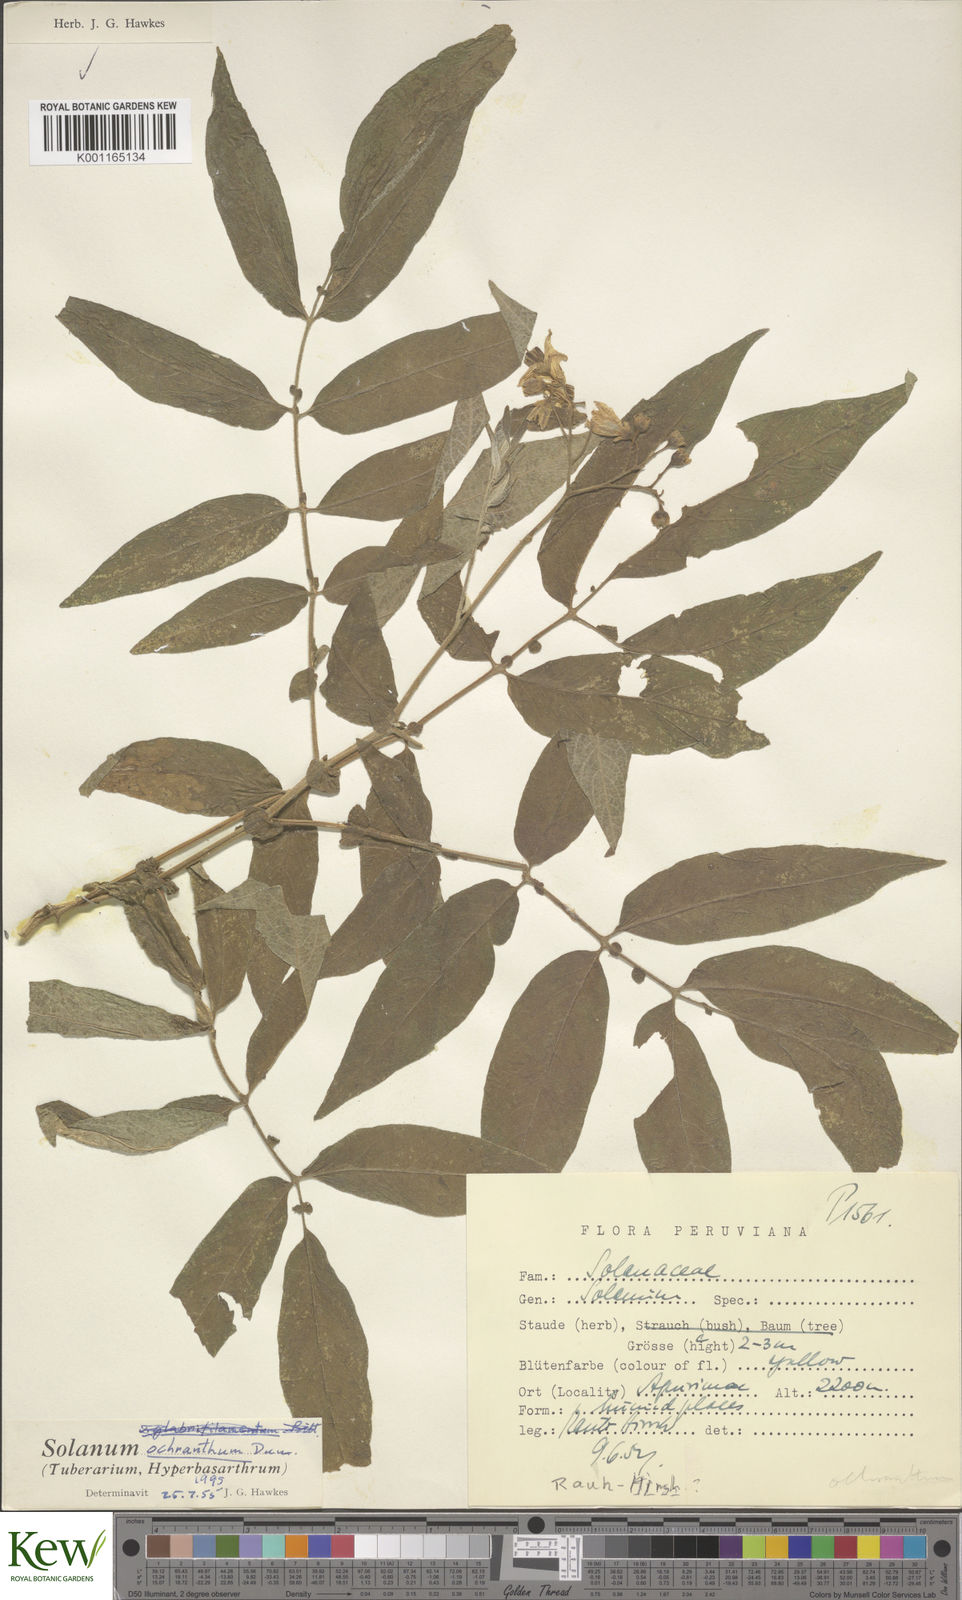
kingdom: Plantae
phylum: Tracheophyta
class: Magnoliopsida
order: Solanales
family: Solanaceae
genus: Solanum
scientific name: Solanum ochranthum
